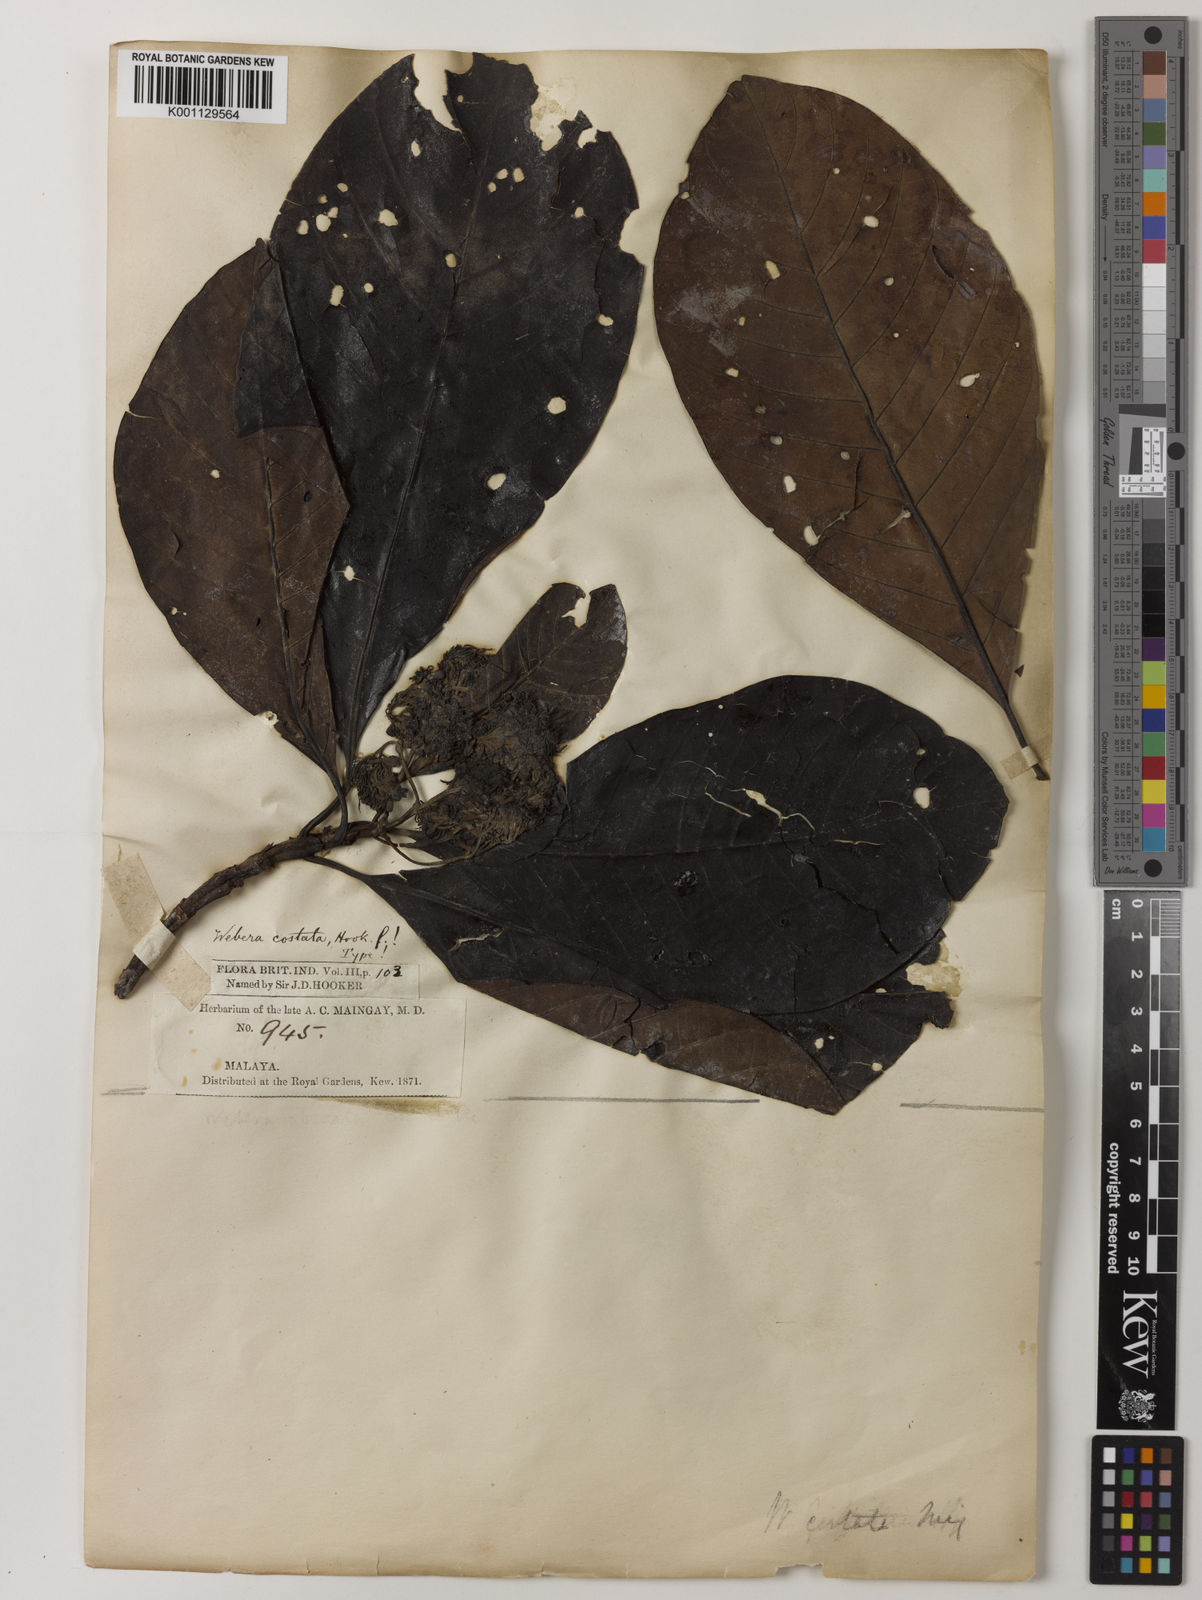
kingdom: Plantae
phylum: Tracheophyta
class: Magnoliopsida
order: Gentianales
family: Rubiaceae
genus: Tarenna
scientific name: Tarenna costata
